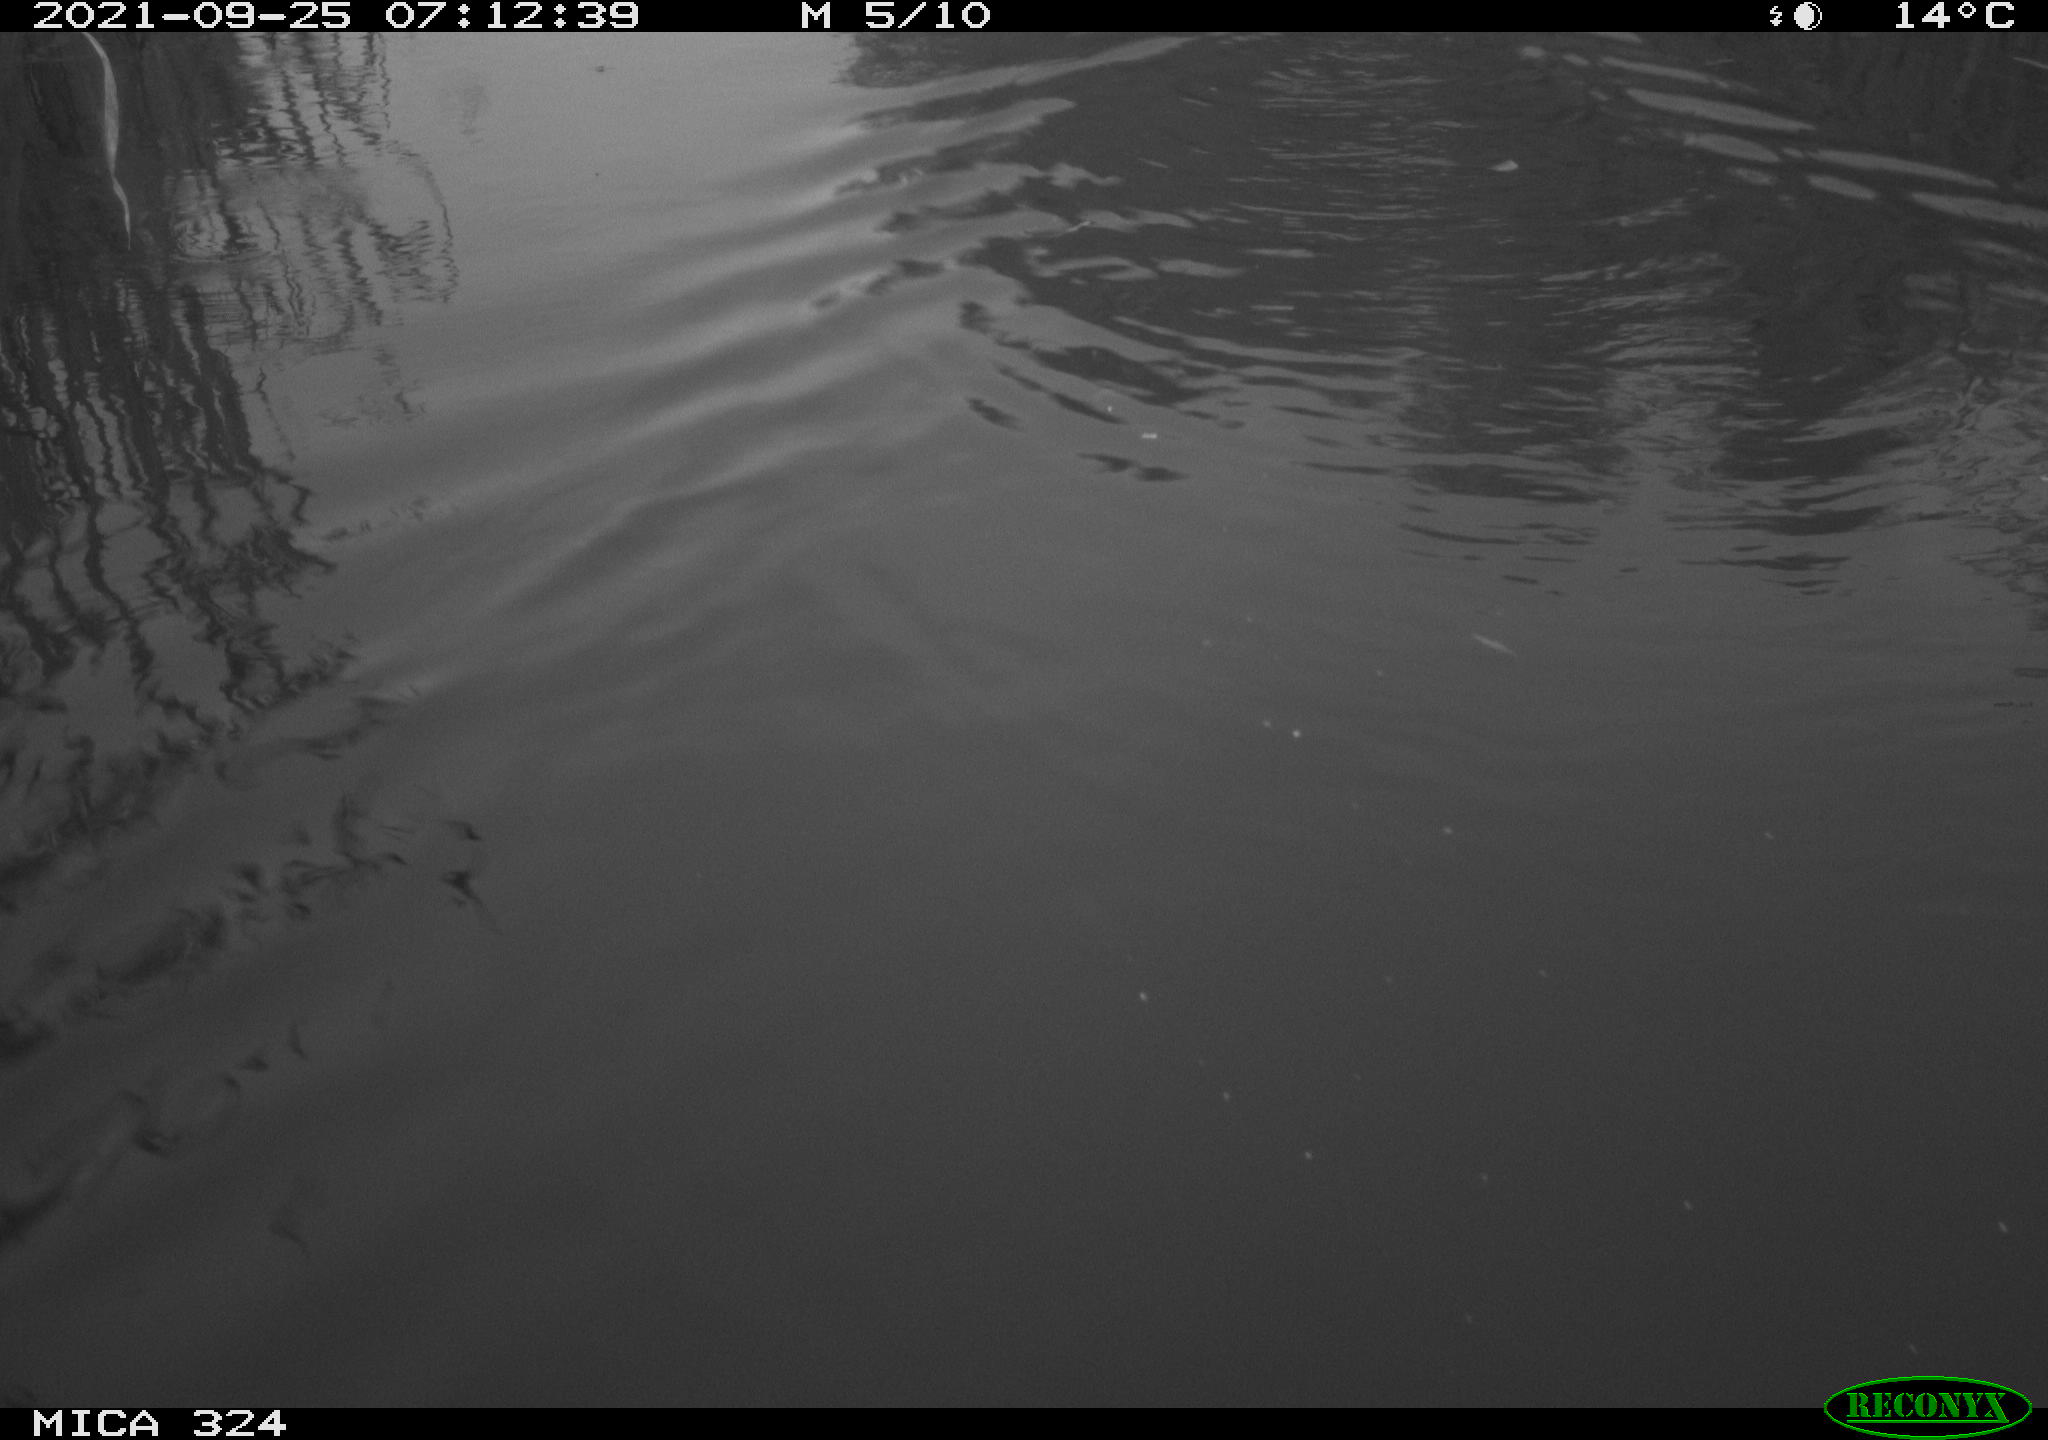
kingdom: Animalia
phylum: Chordata
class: Mammalia
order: Rodentia
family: Cricetidae
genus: Ondatra
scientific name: Ondatra zibethicus
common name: Muskrat
